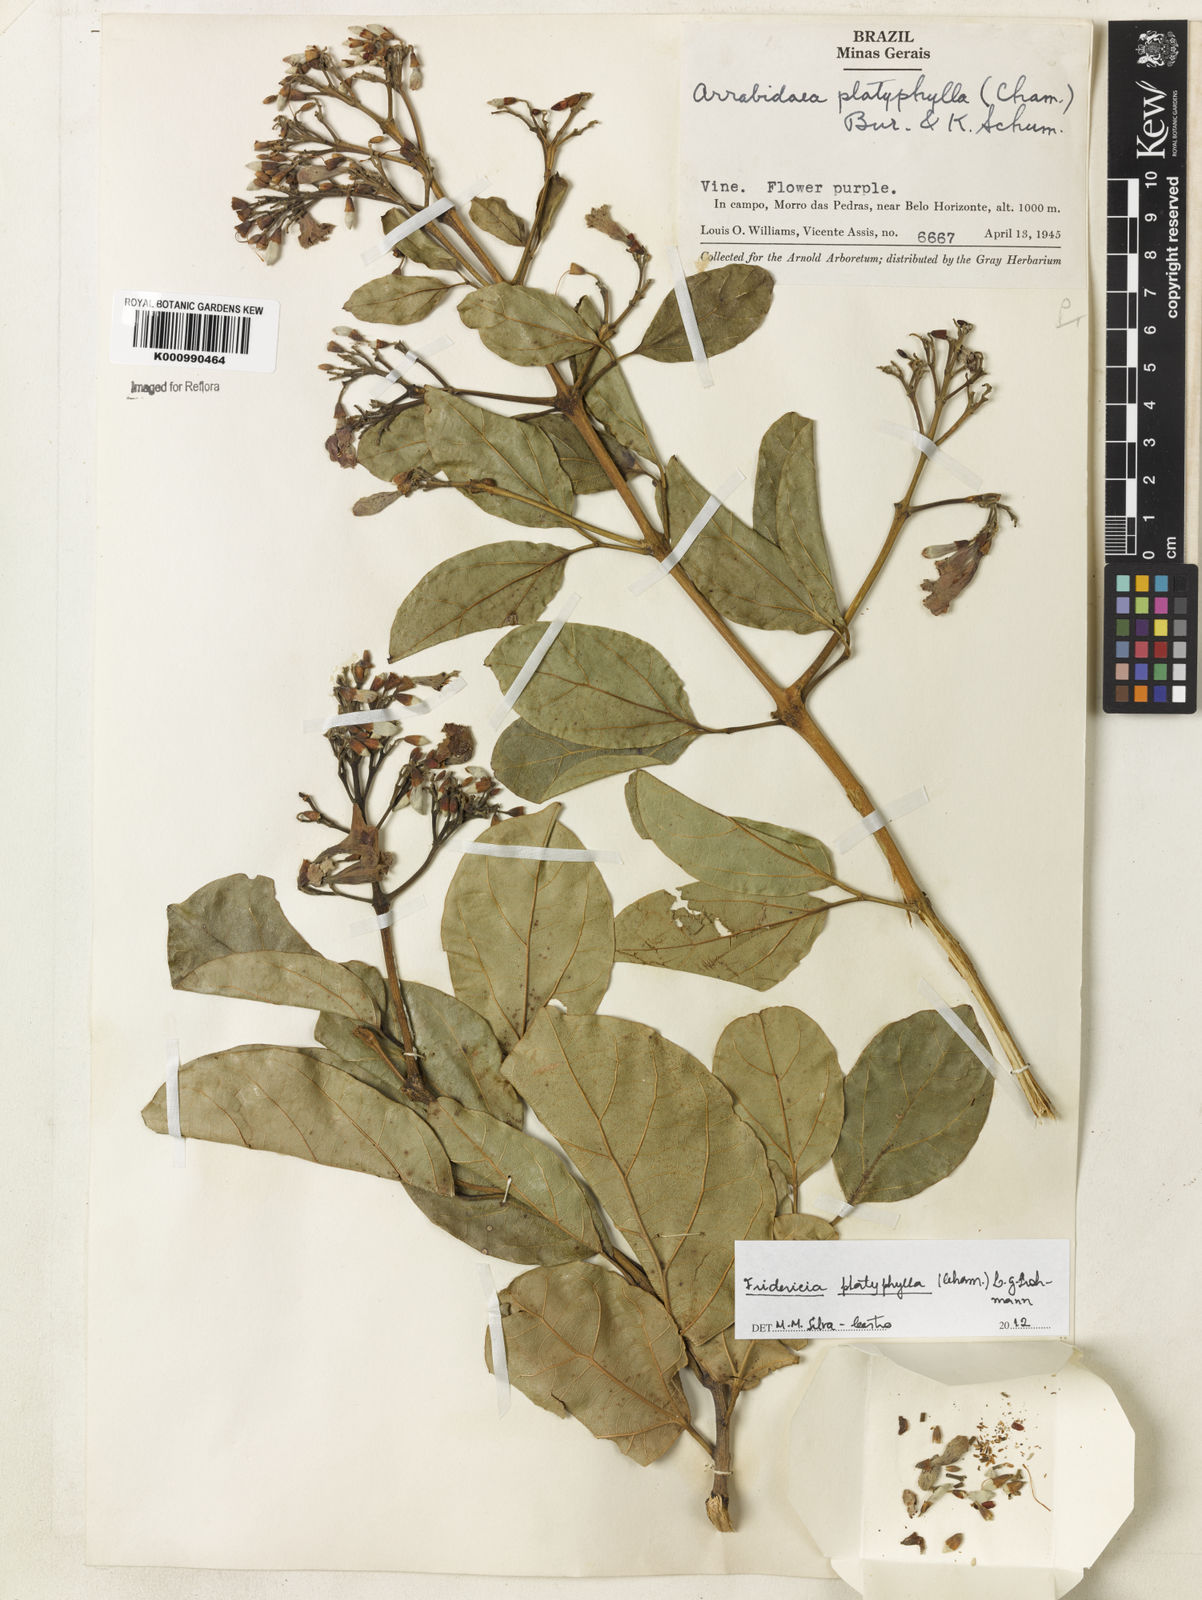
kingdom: Plantae
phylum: Tracheophyta
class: Magnoliopsida
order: Lamiales
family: Bignoniaceae
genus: Fridericia
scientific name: Fridericia platyphylla
